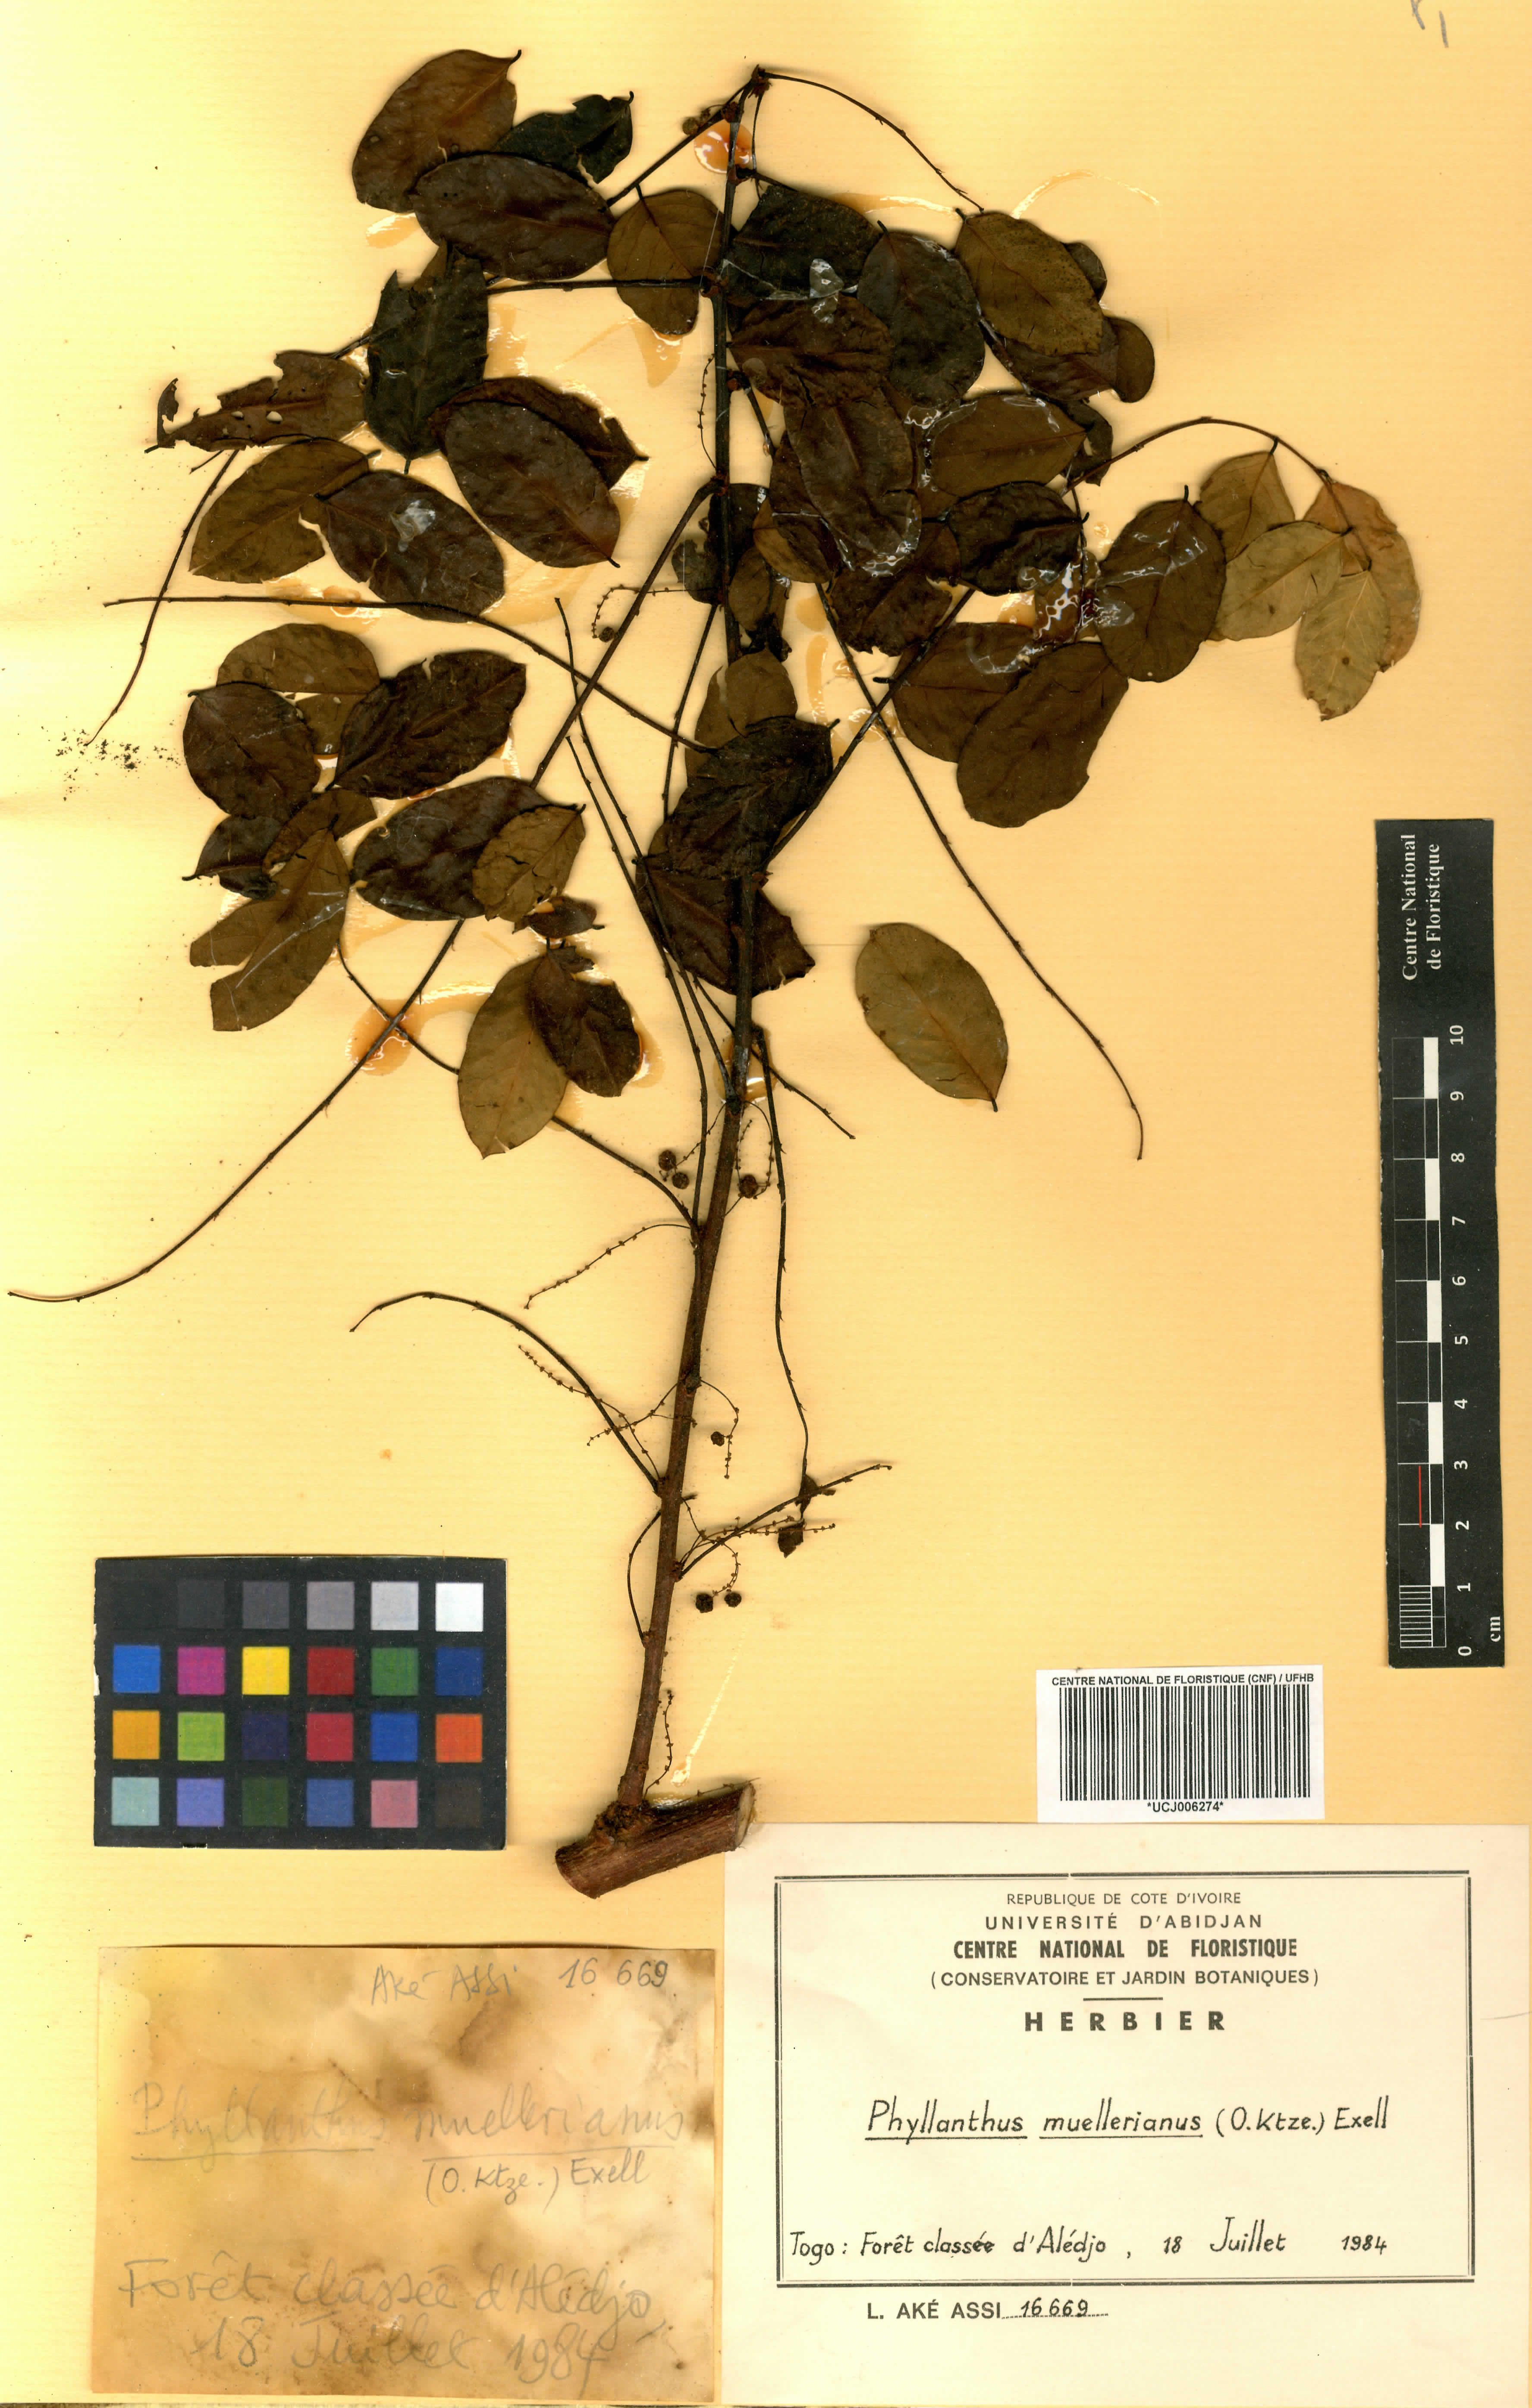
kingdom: Plantae
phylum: Tracheophyta
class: Magnoliopsida
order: Malpighiales
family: Phyllanthaceae
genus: Phyllanthus
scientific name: Phyllanthus muellerianus
